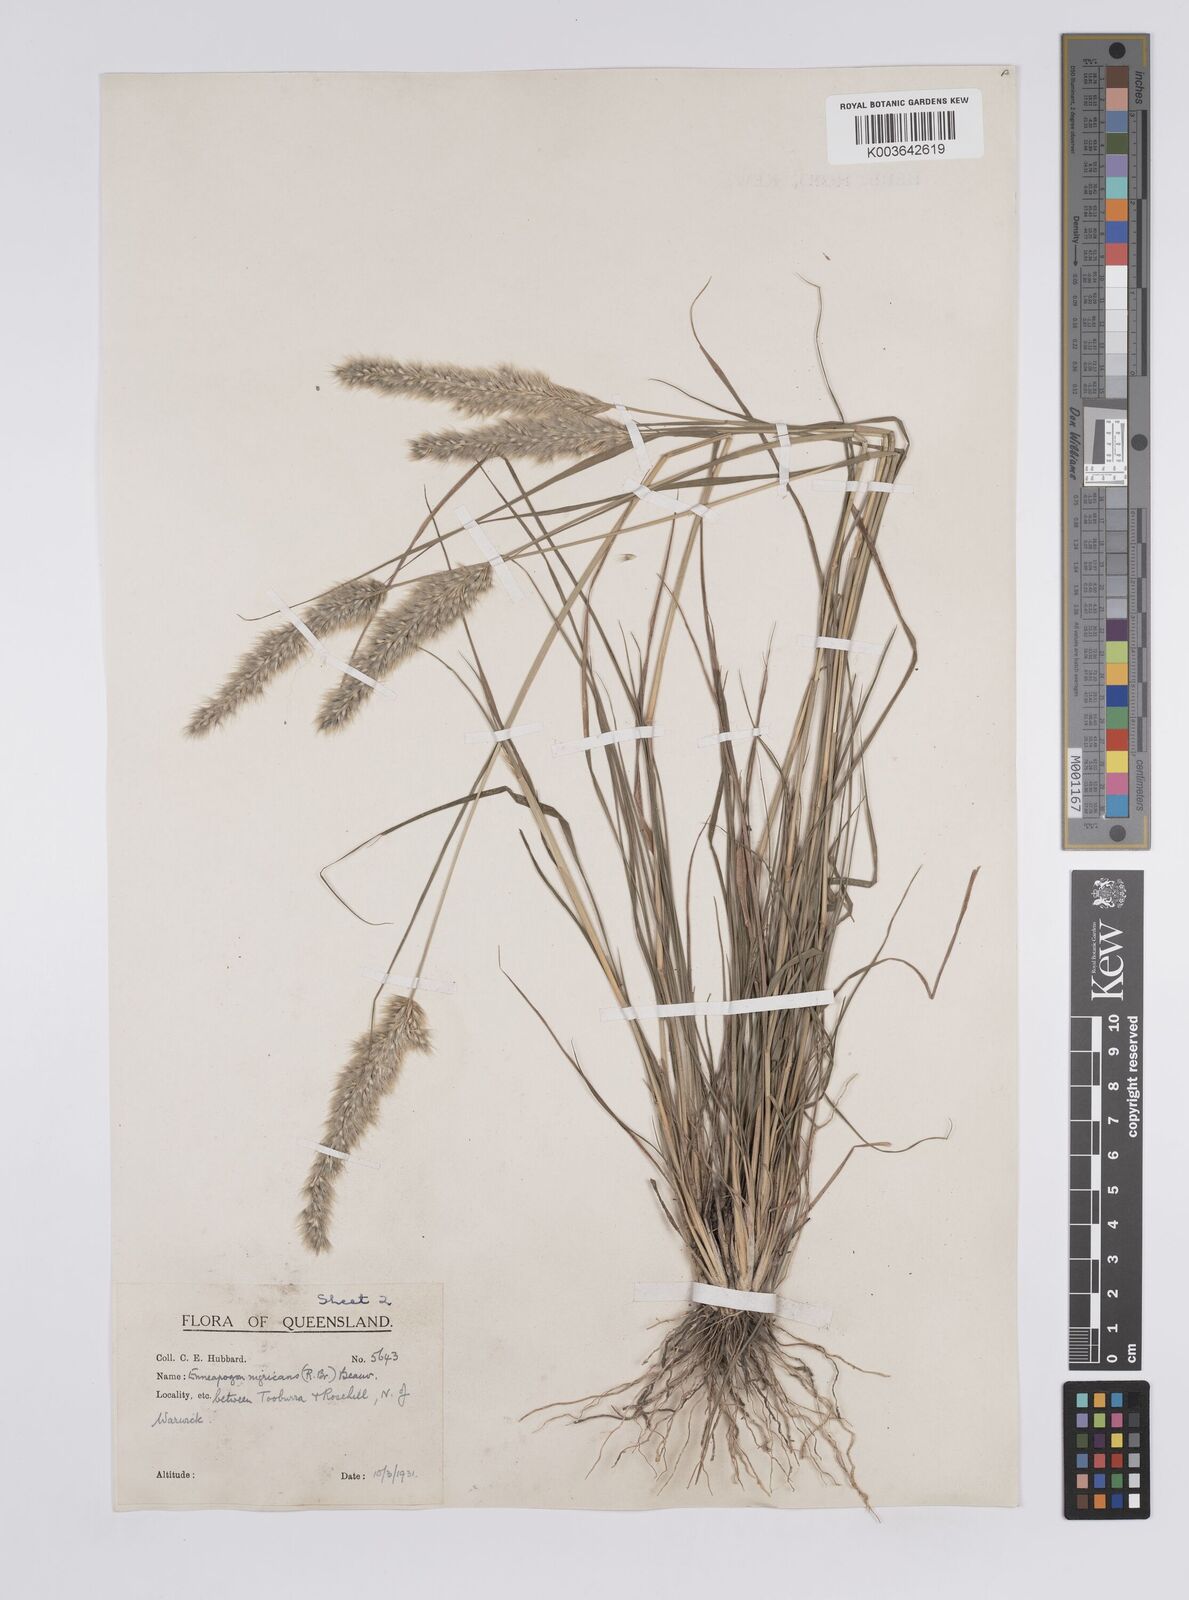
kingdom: Plantae
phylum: Tracheophyta
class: Liliopsida
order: Poales
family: Poaceae
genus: Enneapogon
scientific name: Enneapogon nigricans
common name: Pappus grass
